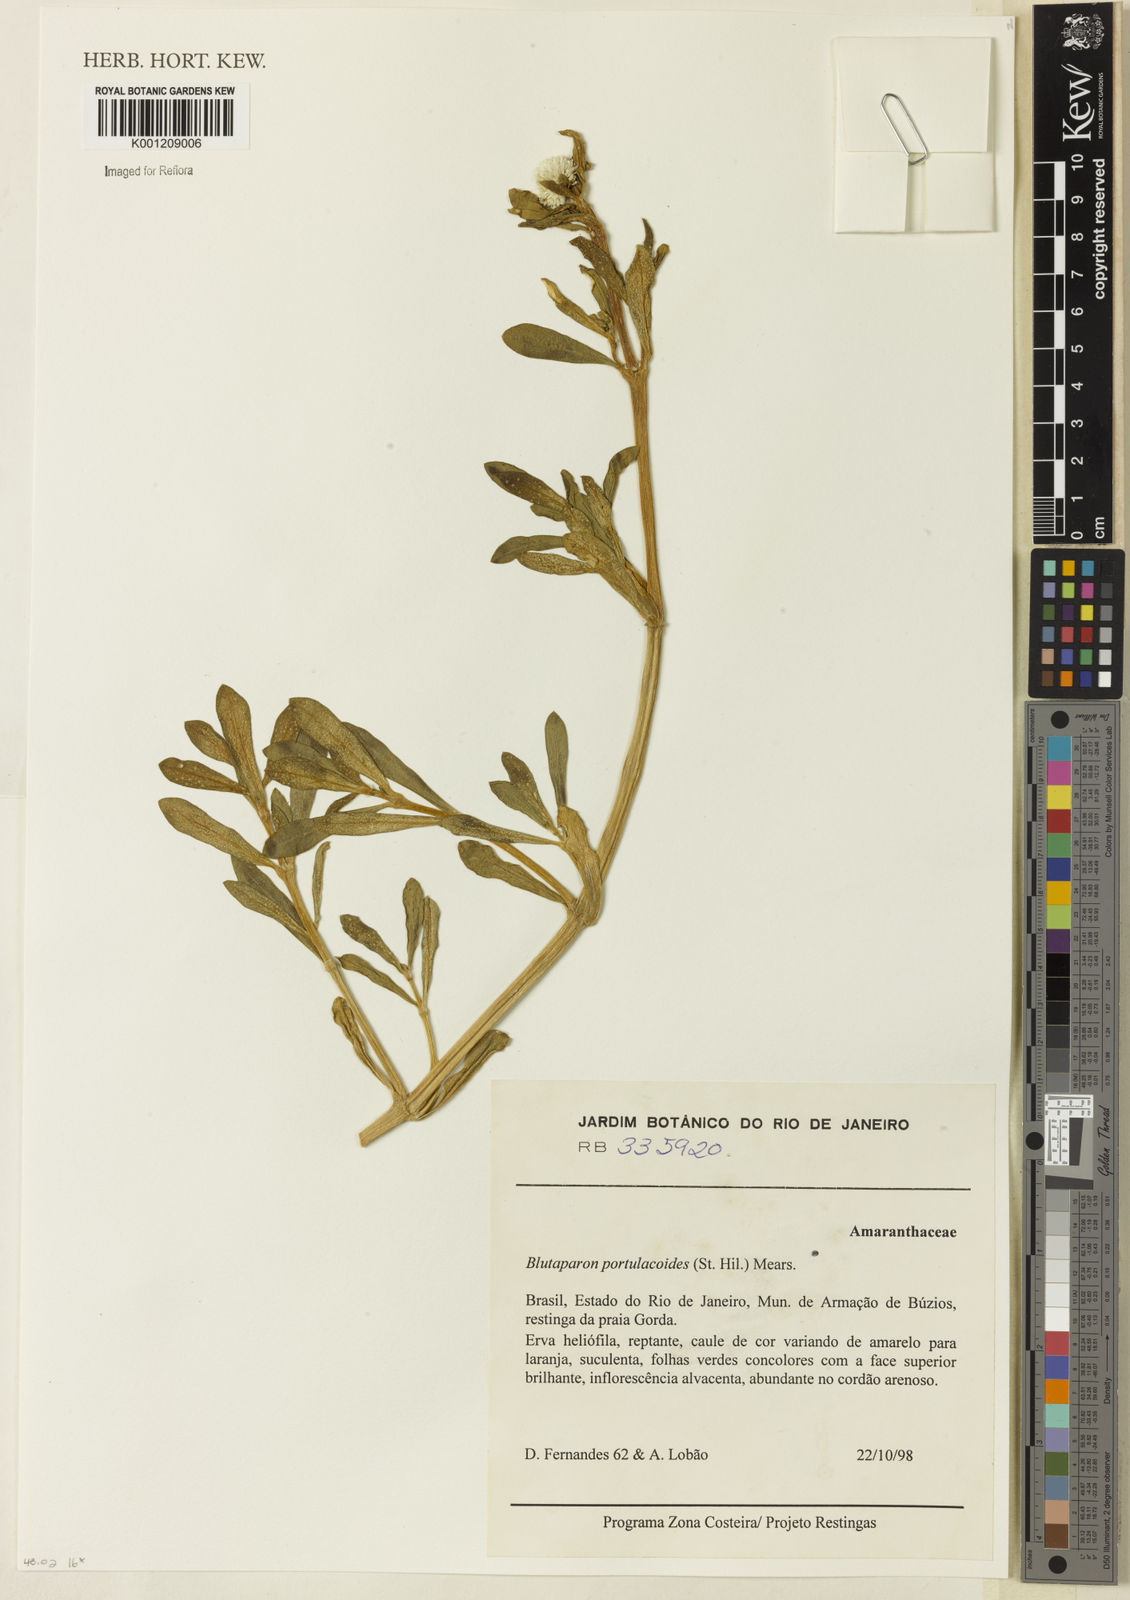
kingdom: Plantae
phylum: Tracheophyta
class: Magnoliopsida
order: Caryophyllales
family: Amaranthaceae
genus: Gomphrena
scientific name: Gomphrena portulacoides
